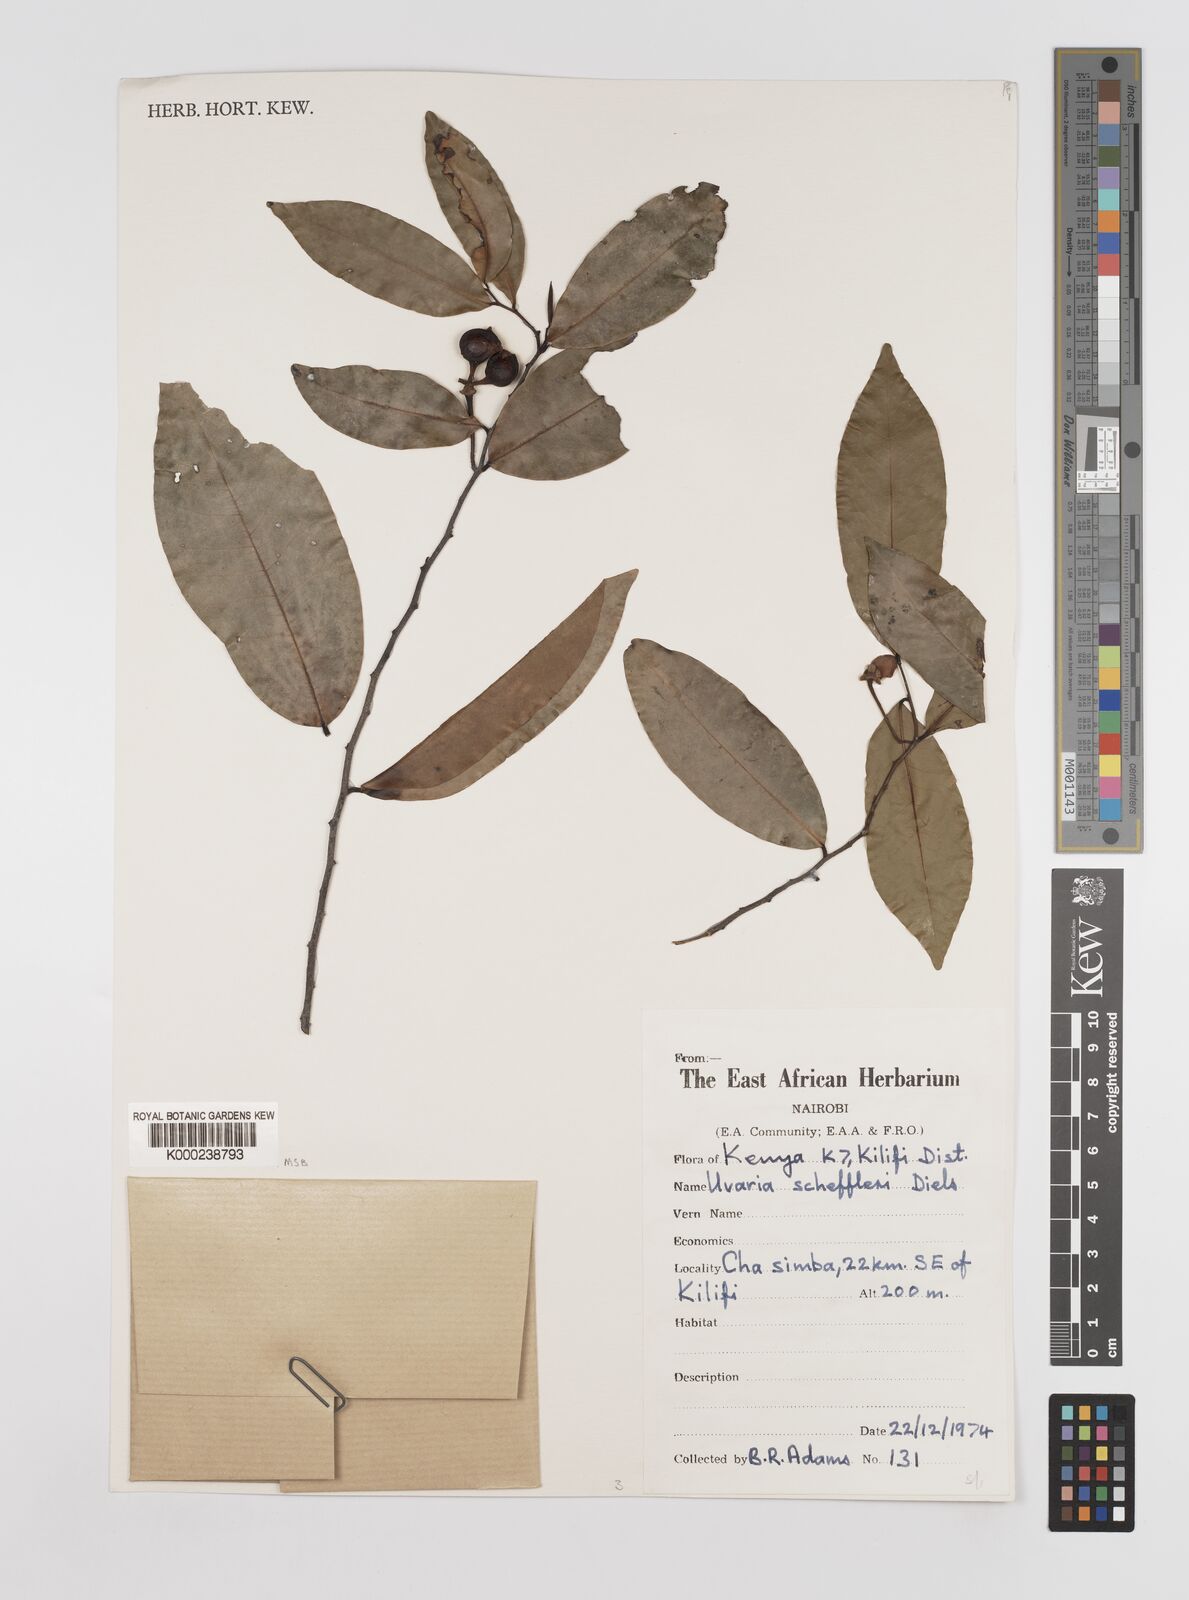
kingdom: Plantae
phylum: Tracheophyta
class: Magnoliopsida
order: Magnoliales
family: Annonaceae
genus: Uvaria
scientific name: Uvaria scheffleri
